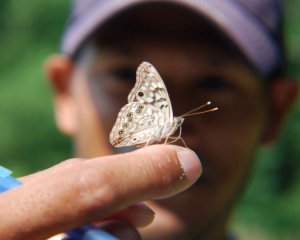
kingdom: Animalia
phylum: Arthropoda
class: Insecta
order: Lepidoptera
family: Nymphalidae
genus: Asterocampa
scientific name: Asterocampa celtis
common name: Hackberry Emperor
